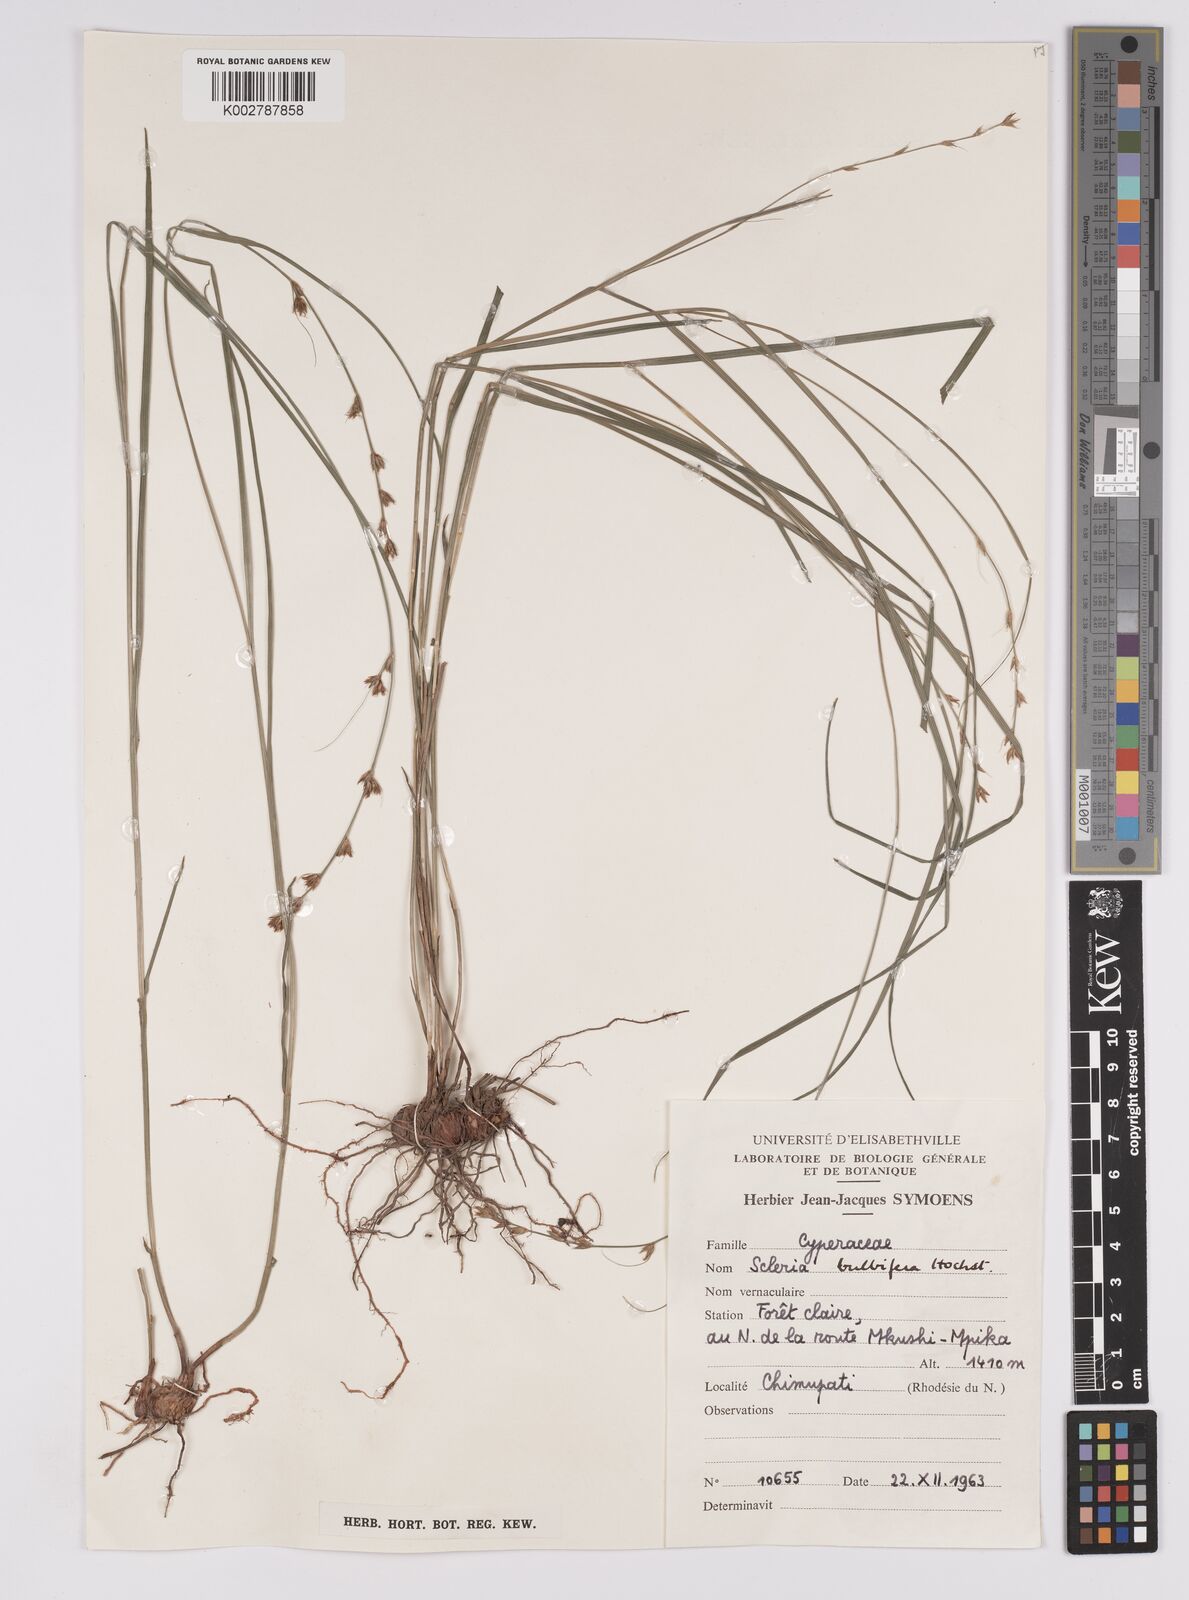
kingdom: Plantae
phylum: Tracheophyta
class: Liliopsida
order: Poales
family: Cyperaceae
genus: Scleria
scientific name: Scleria bulbifera
